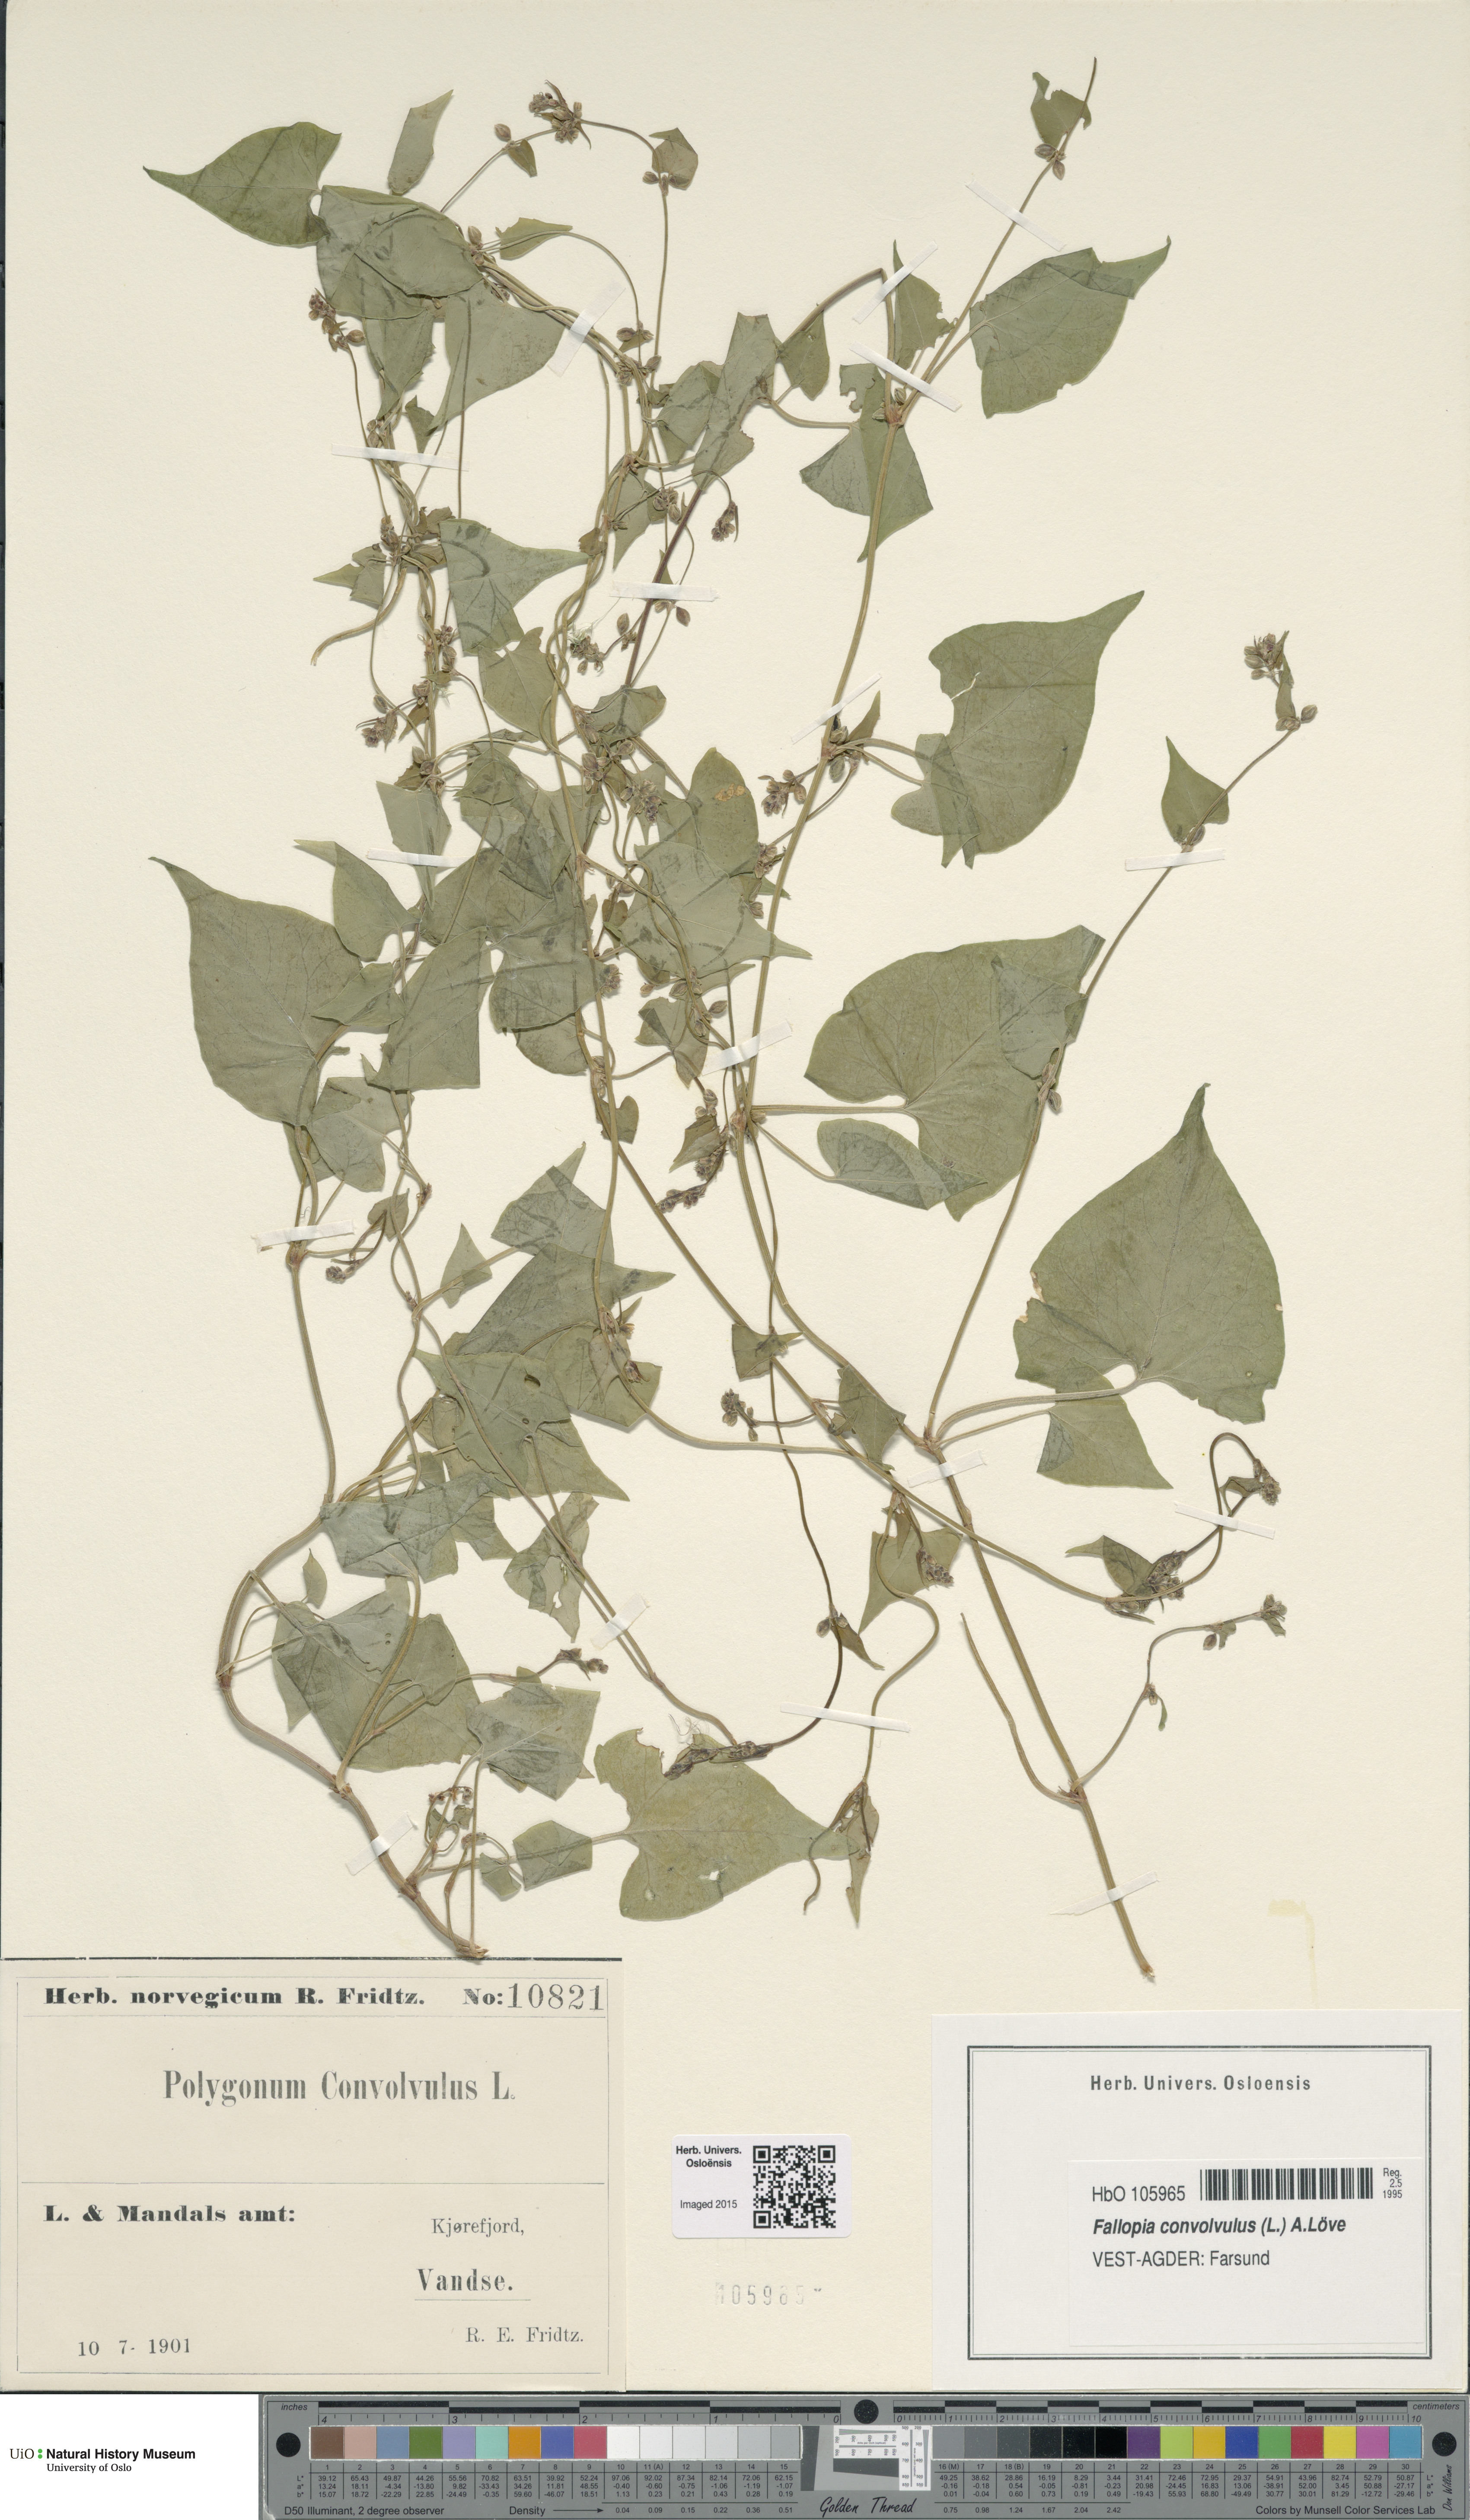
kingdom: Plantae
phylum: Tracheophyta
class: Magnoliopsida
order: Caryophyllales
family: Polygonaceae
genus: Fallopia
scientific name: Fallopia convolvulus
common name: Black bindweed
